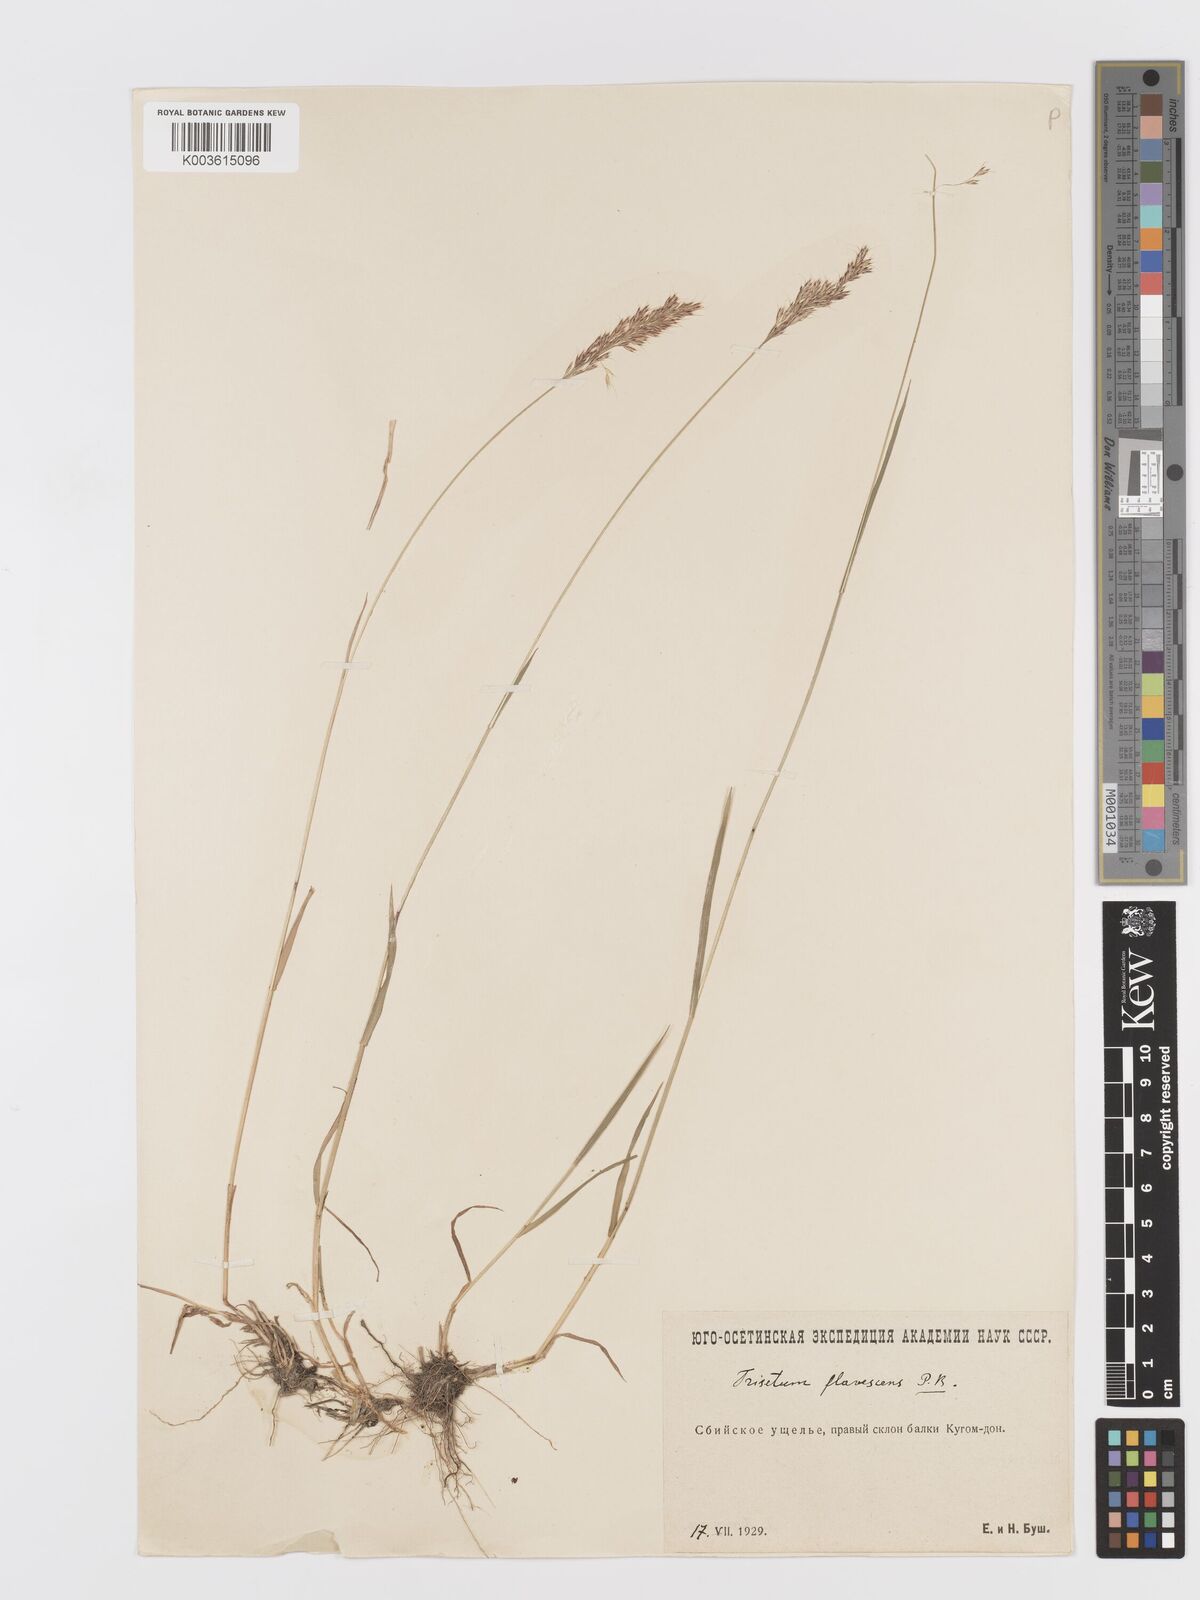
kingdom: Plantae
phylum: Tracheophyta
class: Liliopsida
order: Poales
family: Poaceae
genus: Trisetum
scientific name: Trisetum flavescens
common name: Yellow oat-grass
